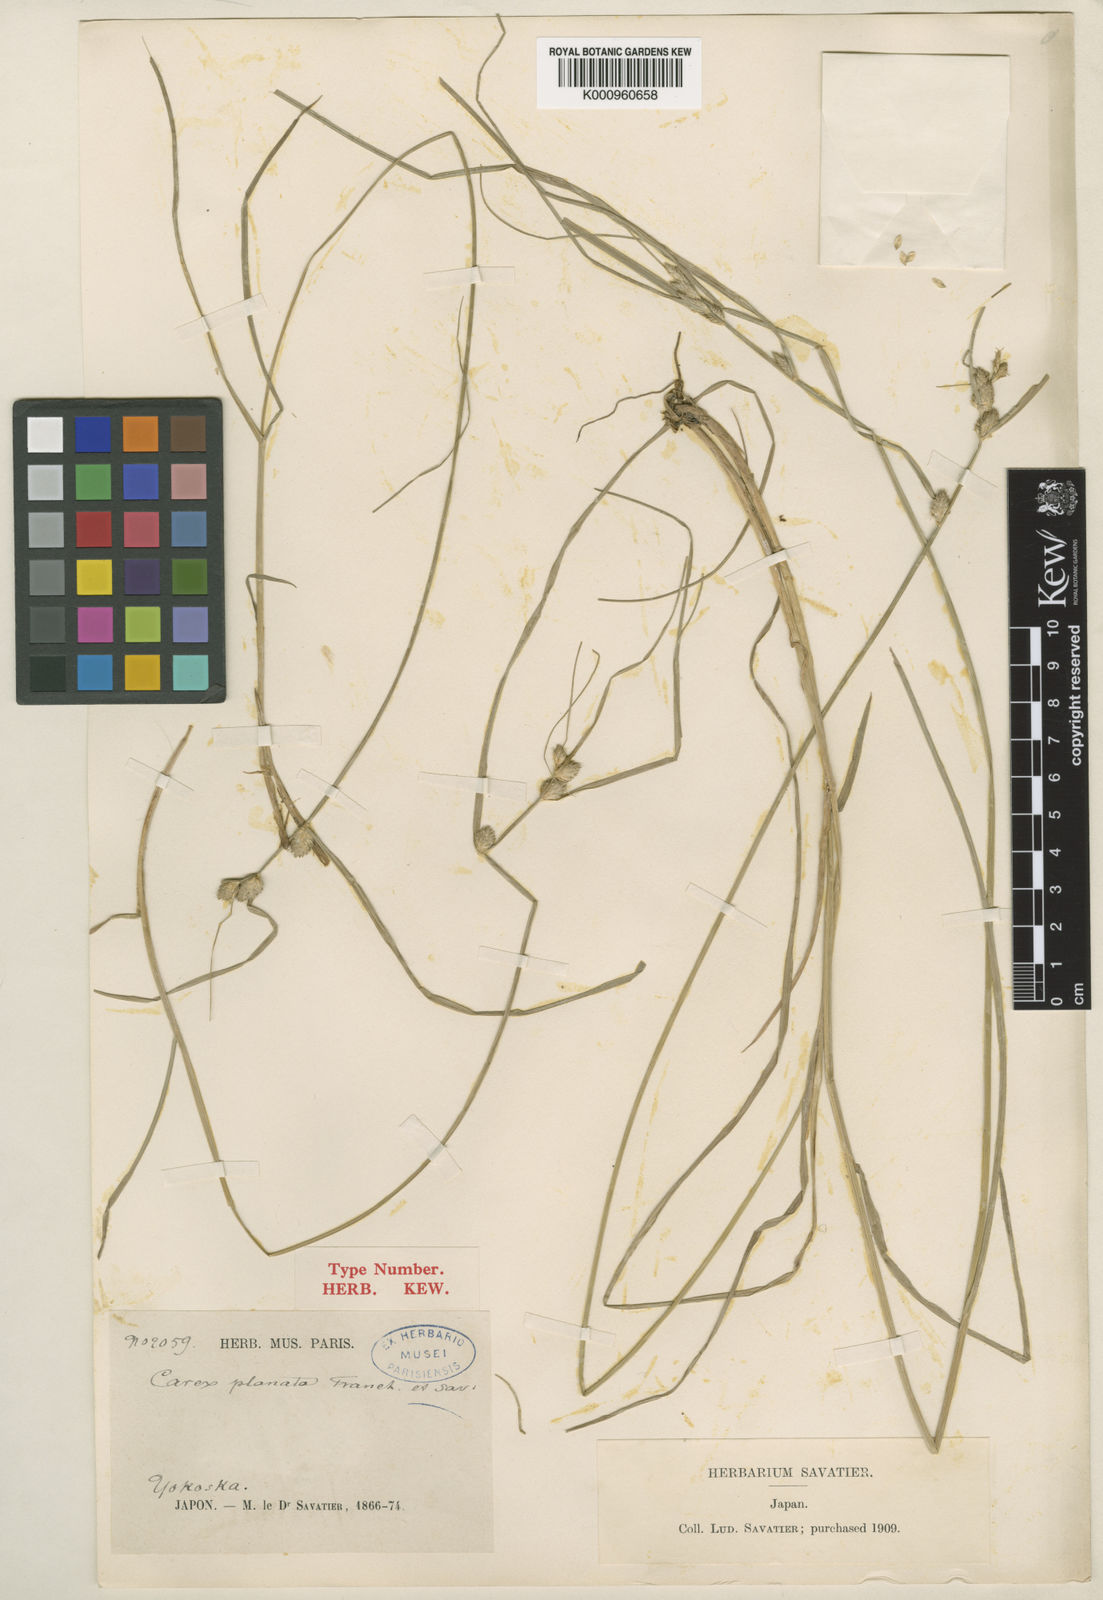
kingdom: Plantae
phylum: Tracheophyta
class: Liliopsida
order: Poales
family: Cyperaceae
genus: Carex
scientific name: Carex planata
